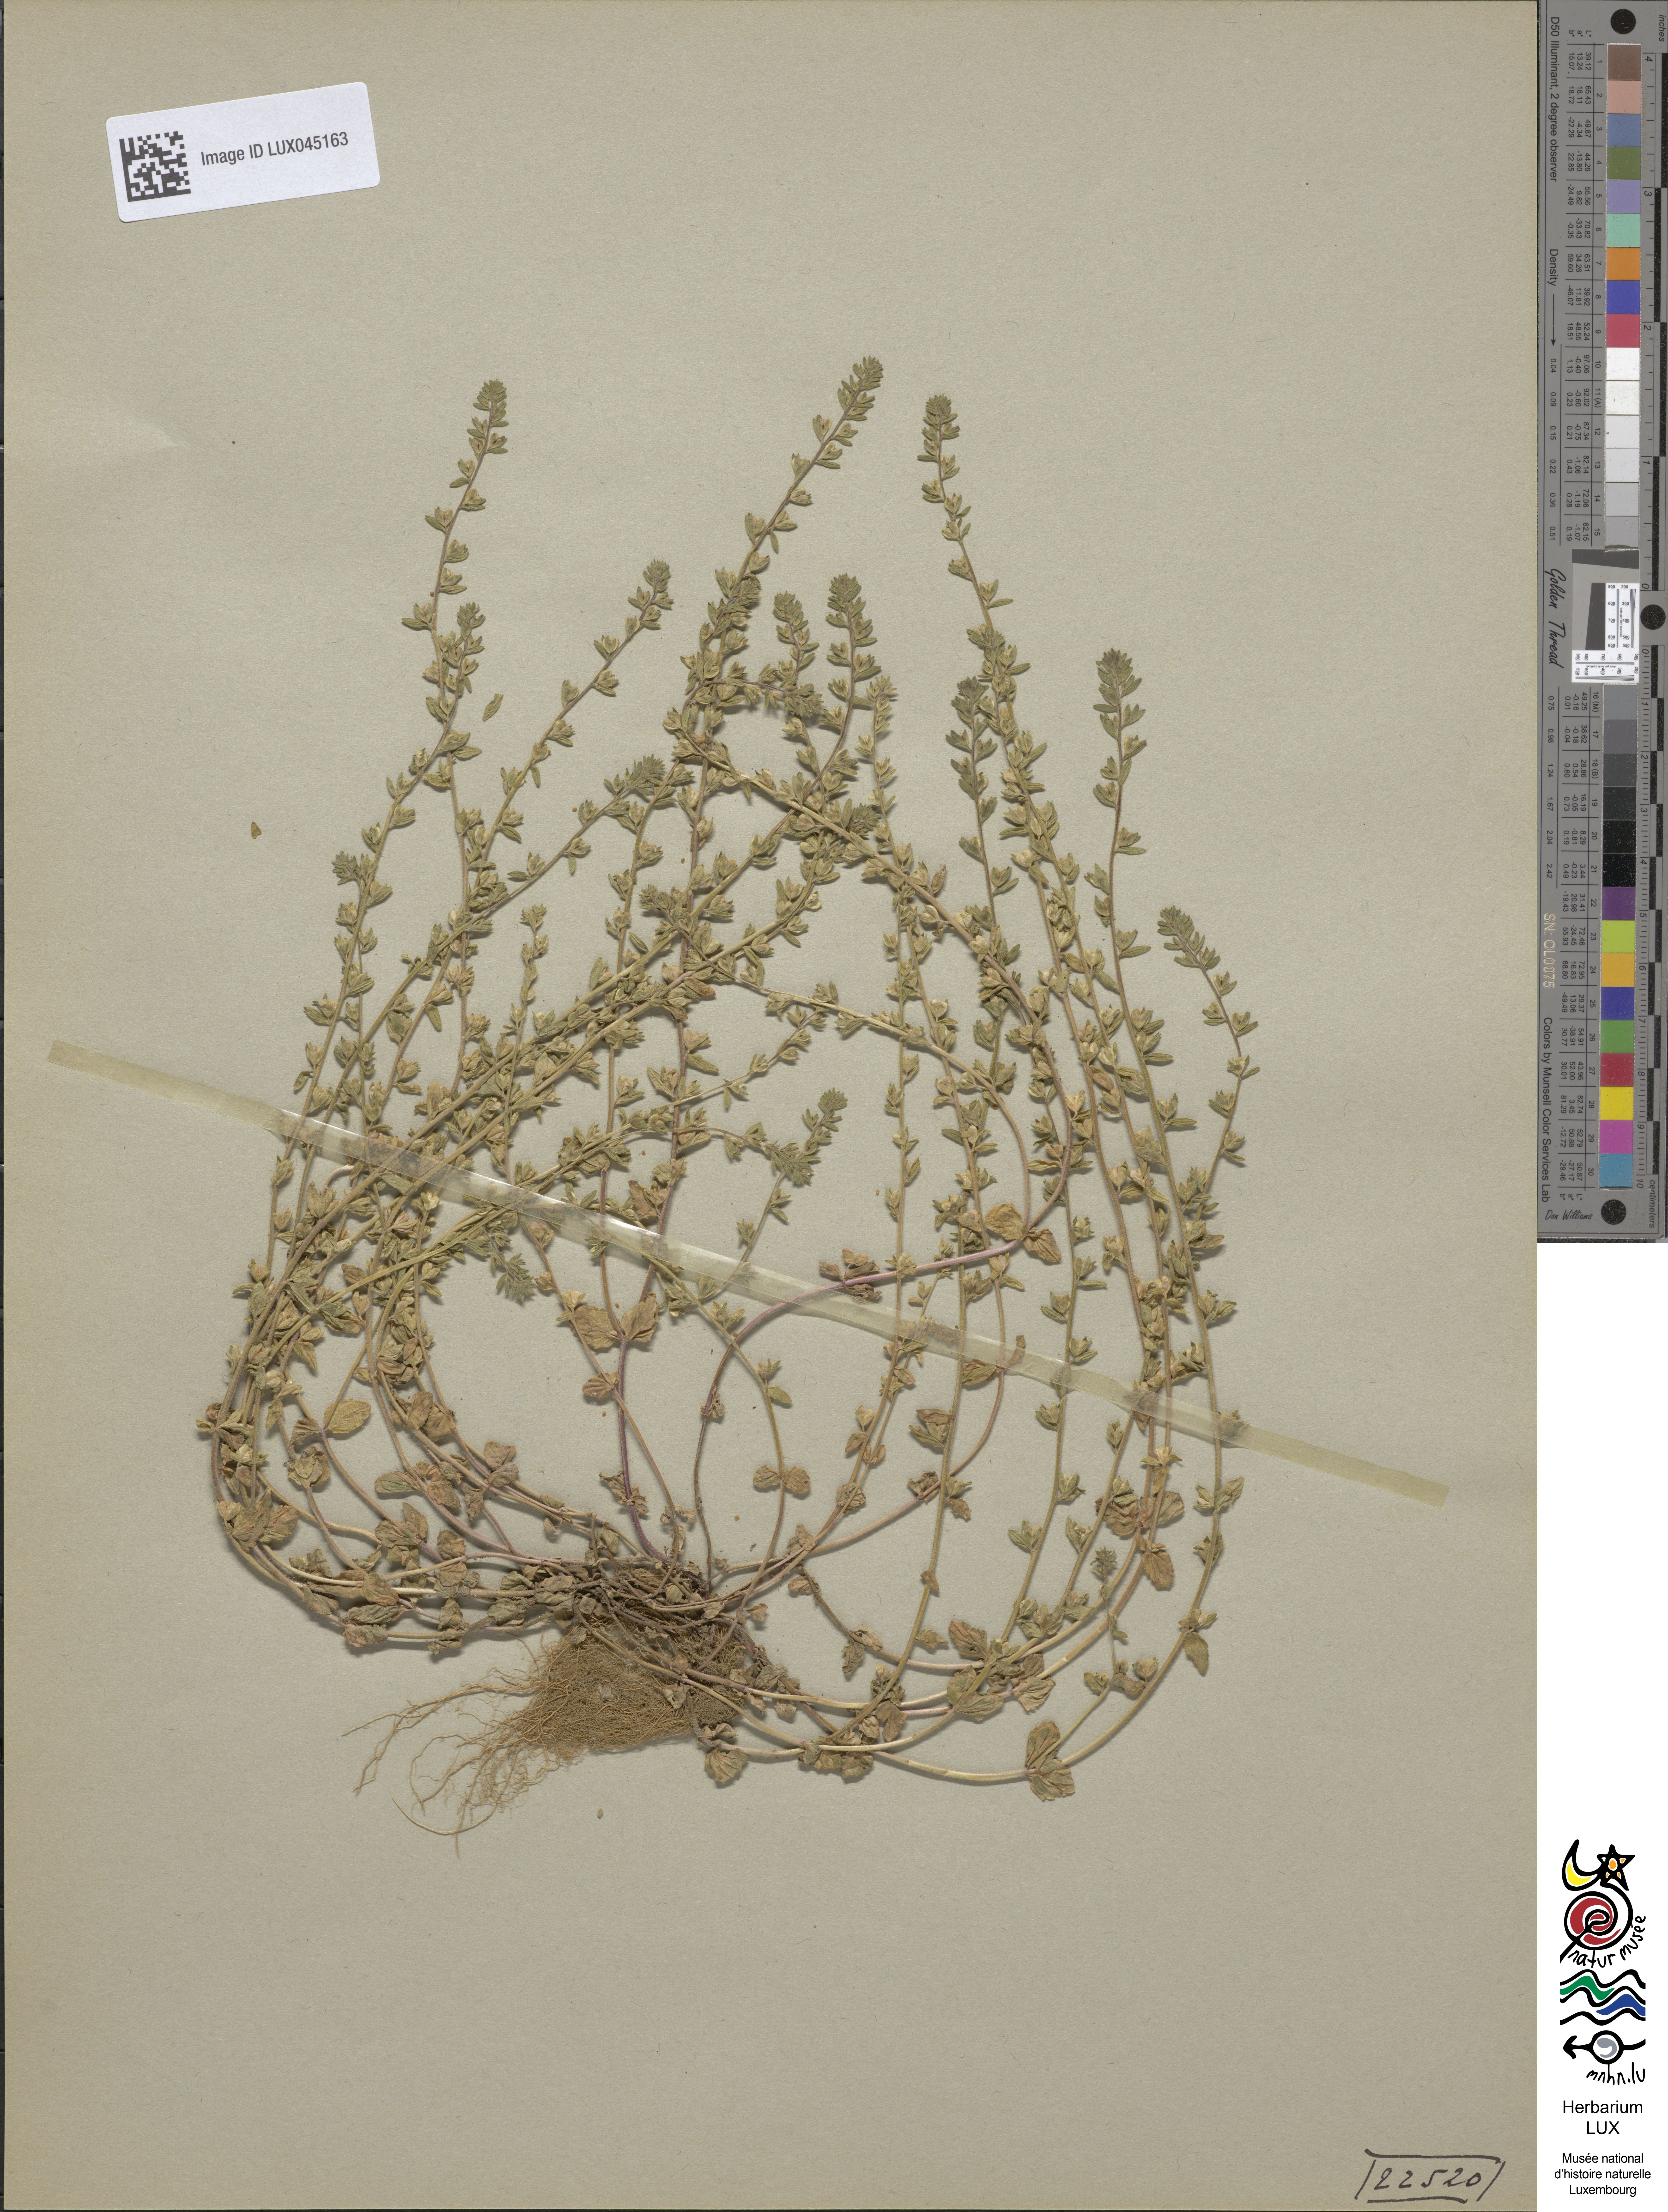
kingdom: Plantae
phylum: Tracheophyta
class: Magnoliopsida
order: Lamiales
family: Plantaginaceae
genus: Veronica
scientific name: Veronica arvensis
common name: Corn speedwell
